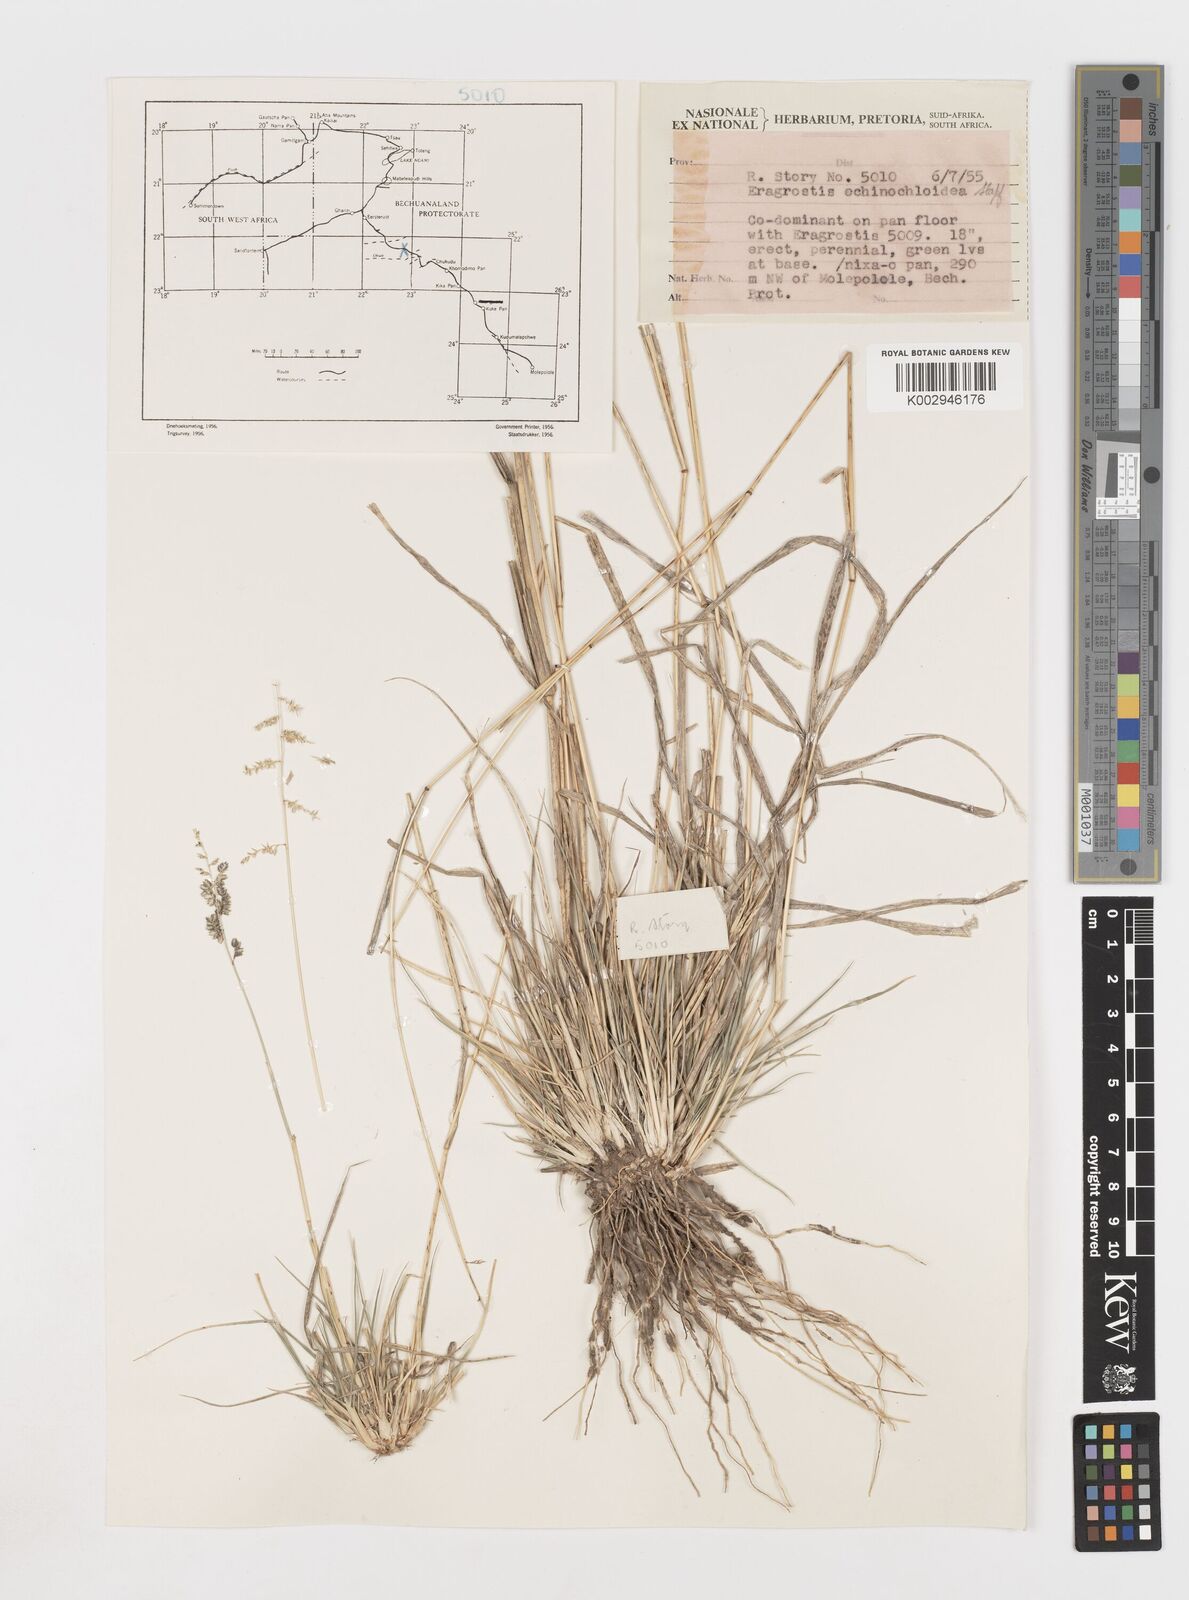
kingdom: Plantae
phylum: Tracheophyta
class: Liliopsida
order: Poales
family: Poaceae
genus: Eragrostis
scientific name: Eragrostis echinochloidea
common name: African lovegrass
